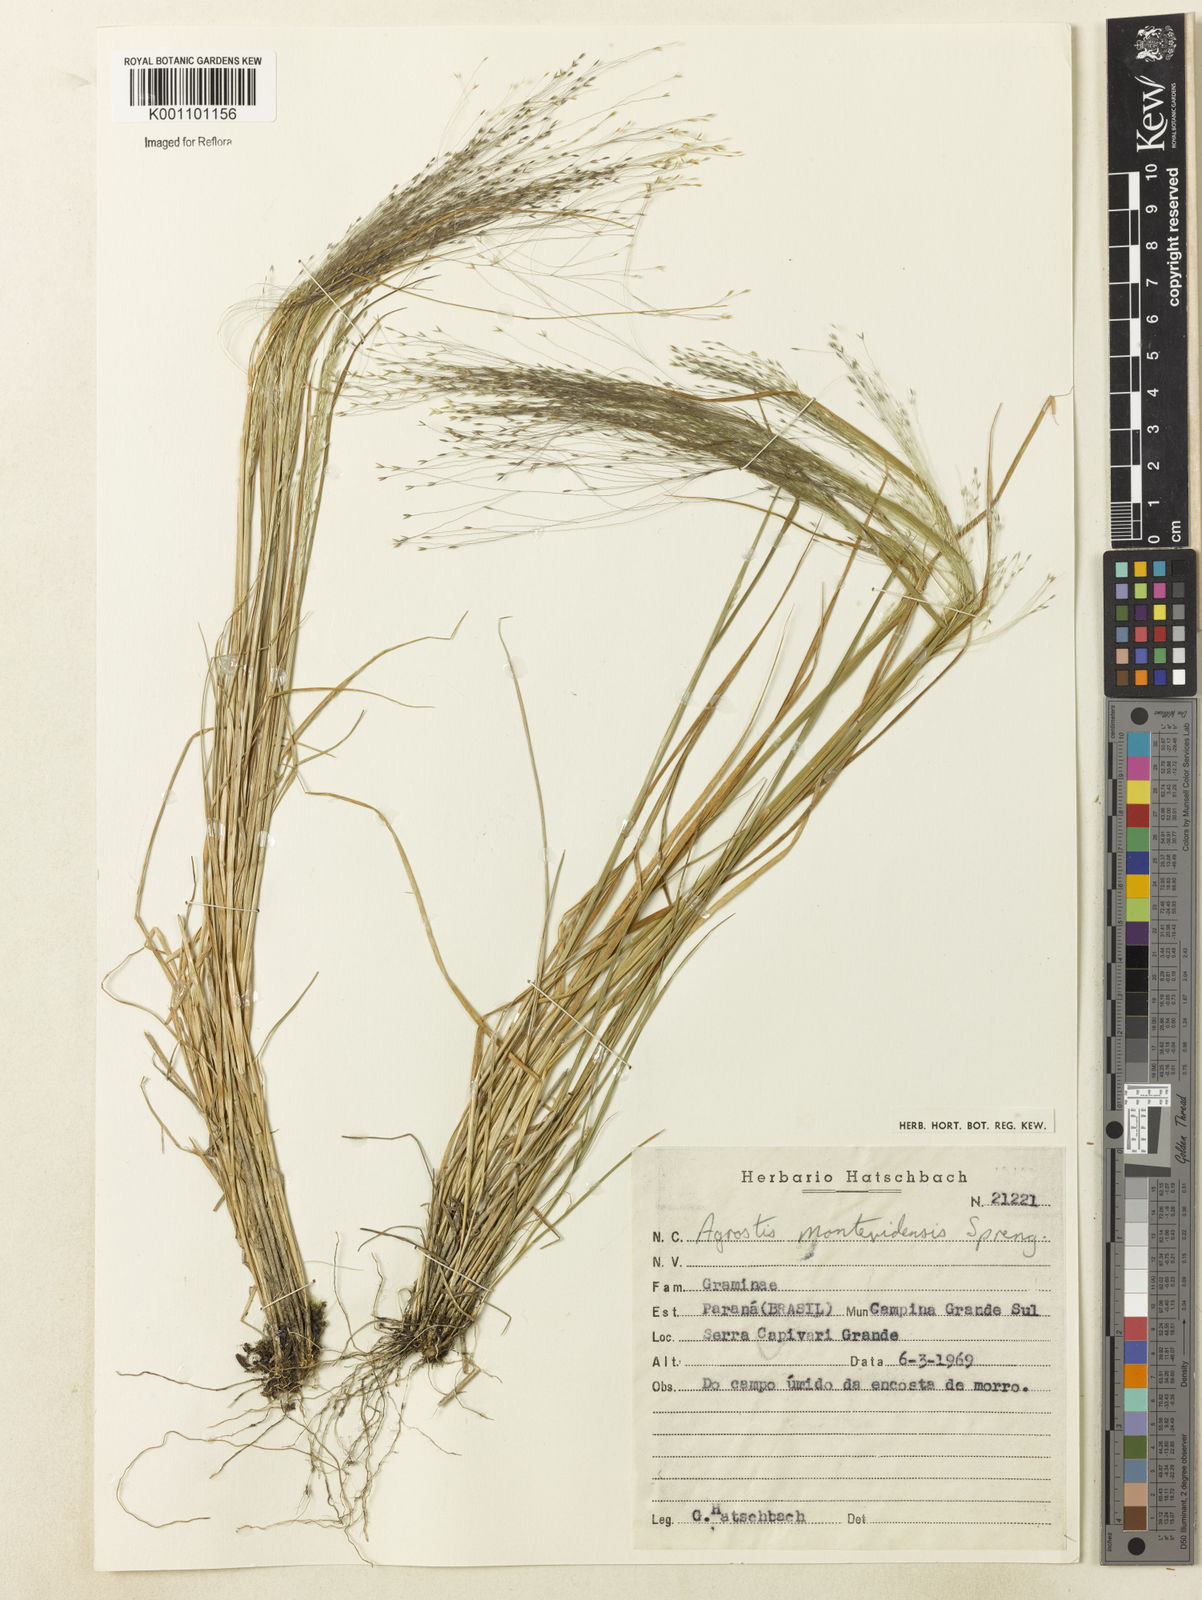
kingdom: Plantae
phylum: Tracheophyta
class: Liliopsida
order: Poales
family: Poaceae
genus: Agrostis
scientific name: Agrostis montevidensis
